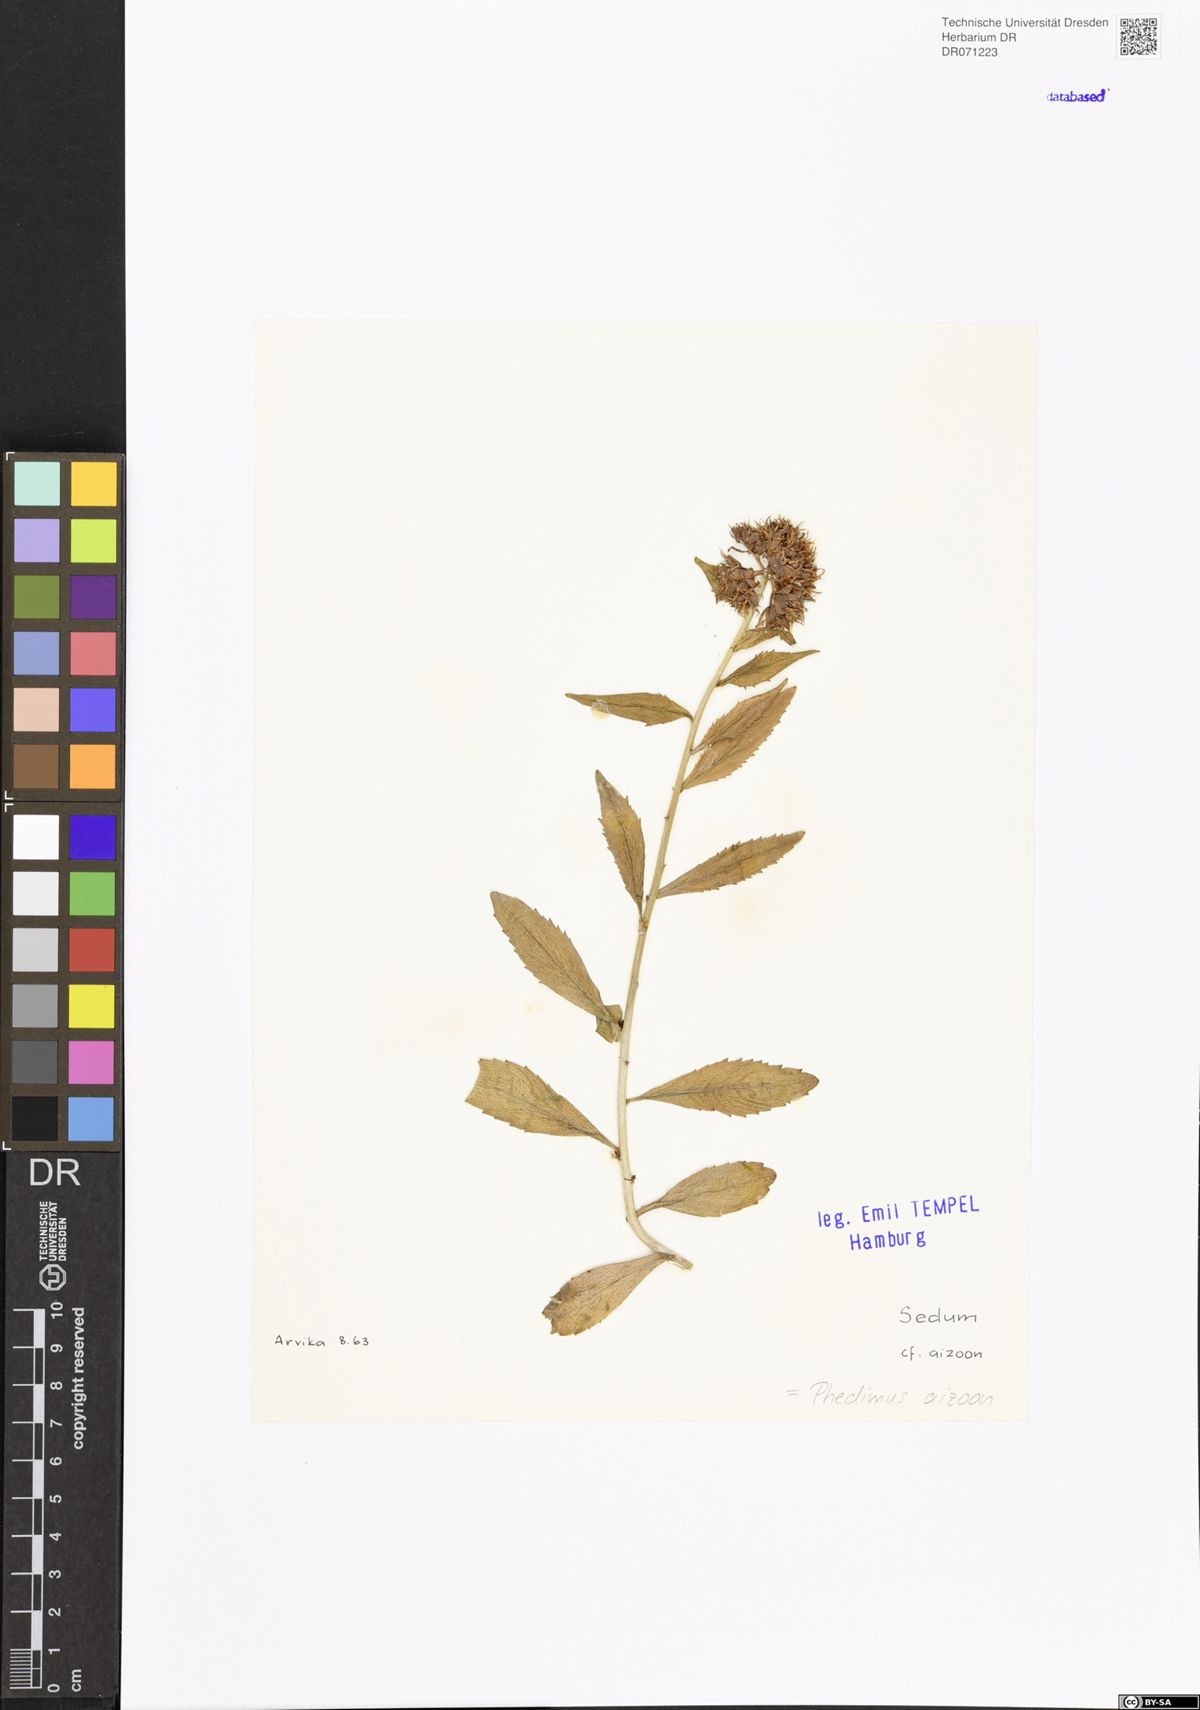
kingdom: Plantae
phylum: Tracheophyta
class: Magnoliopsida
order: Saxifragales
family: Crassulaceae
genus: Phedimus
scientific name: Phedimus aizoon
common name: Orpin aizoon
